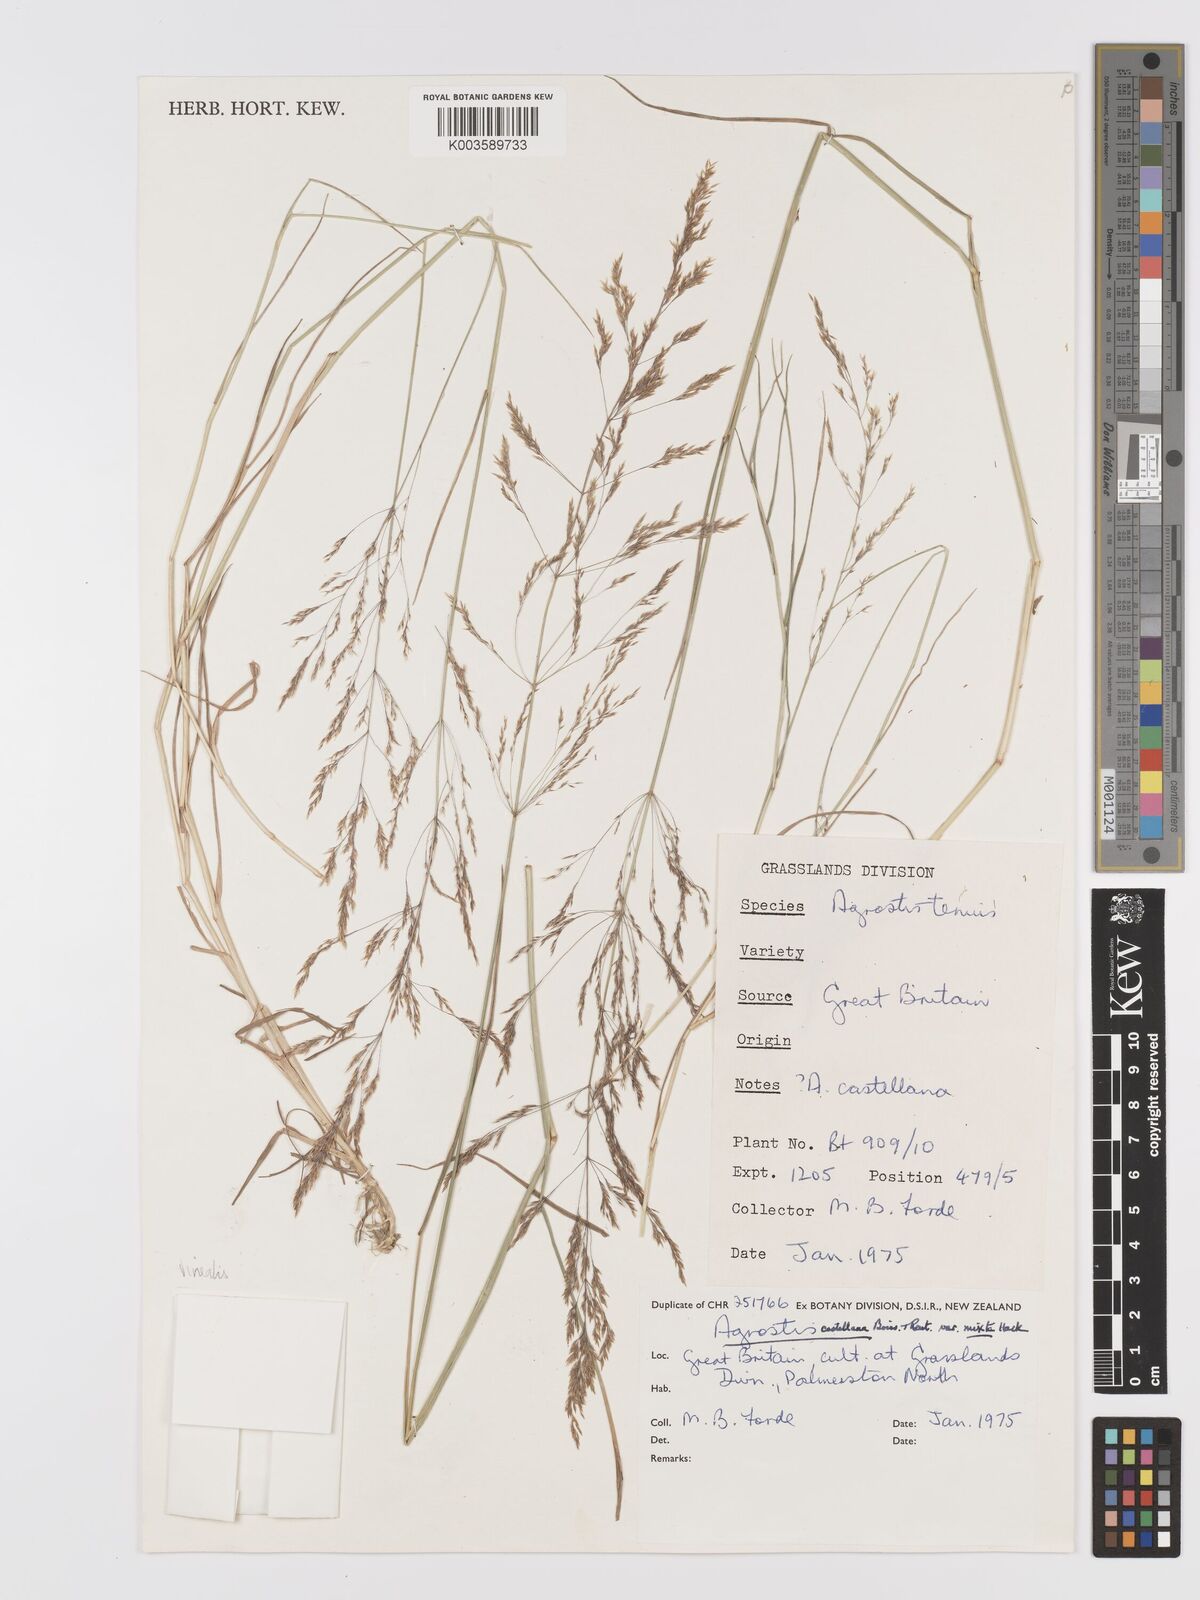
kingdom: Plantae
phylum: Tracheophyta
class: Liliopsida
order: Poales
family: Poaceae
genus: Agrostis
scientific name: Agrostis
